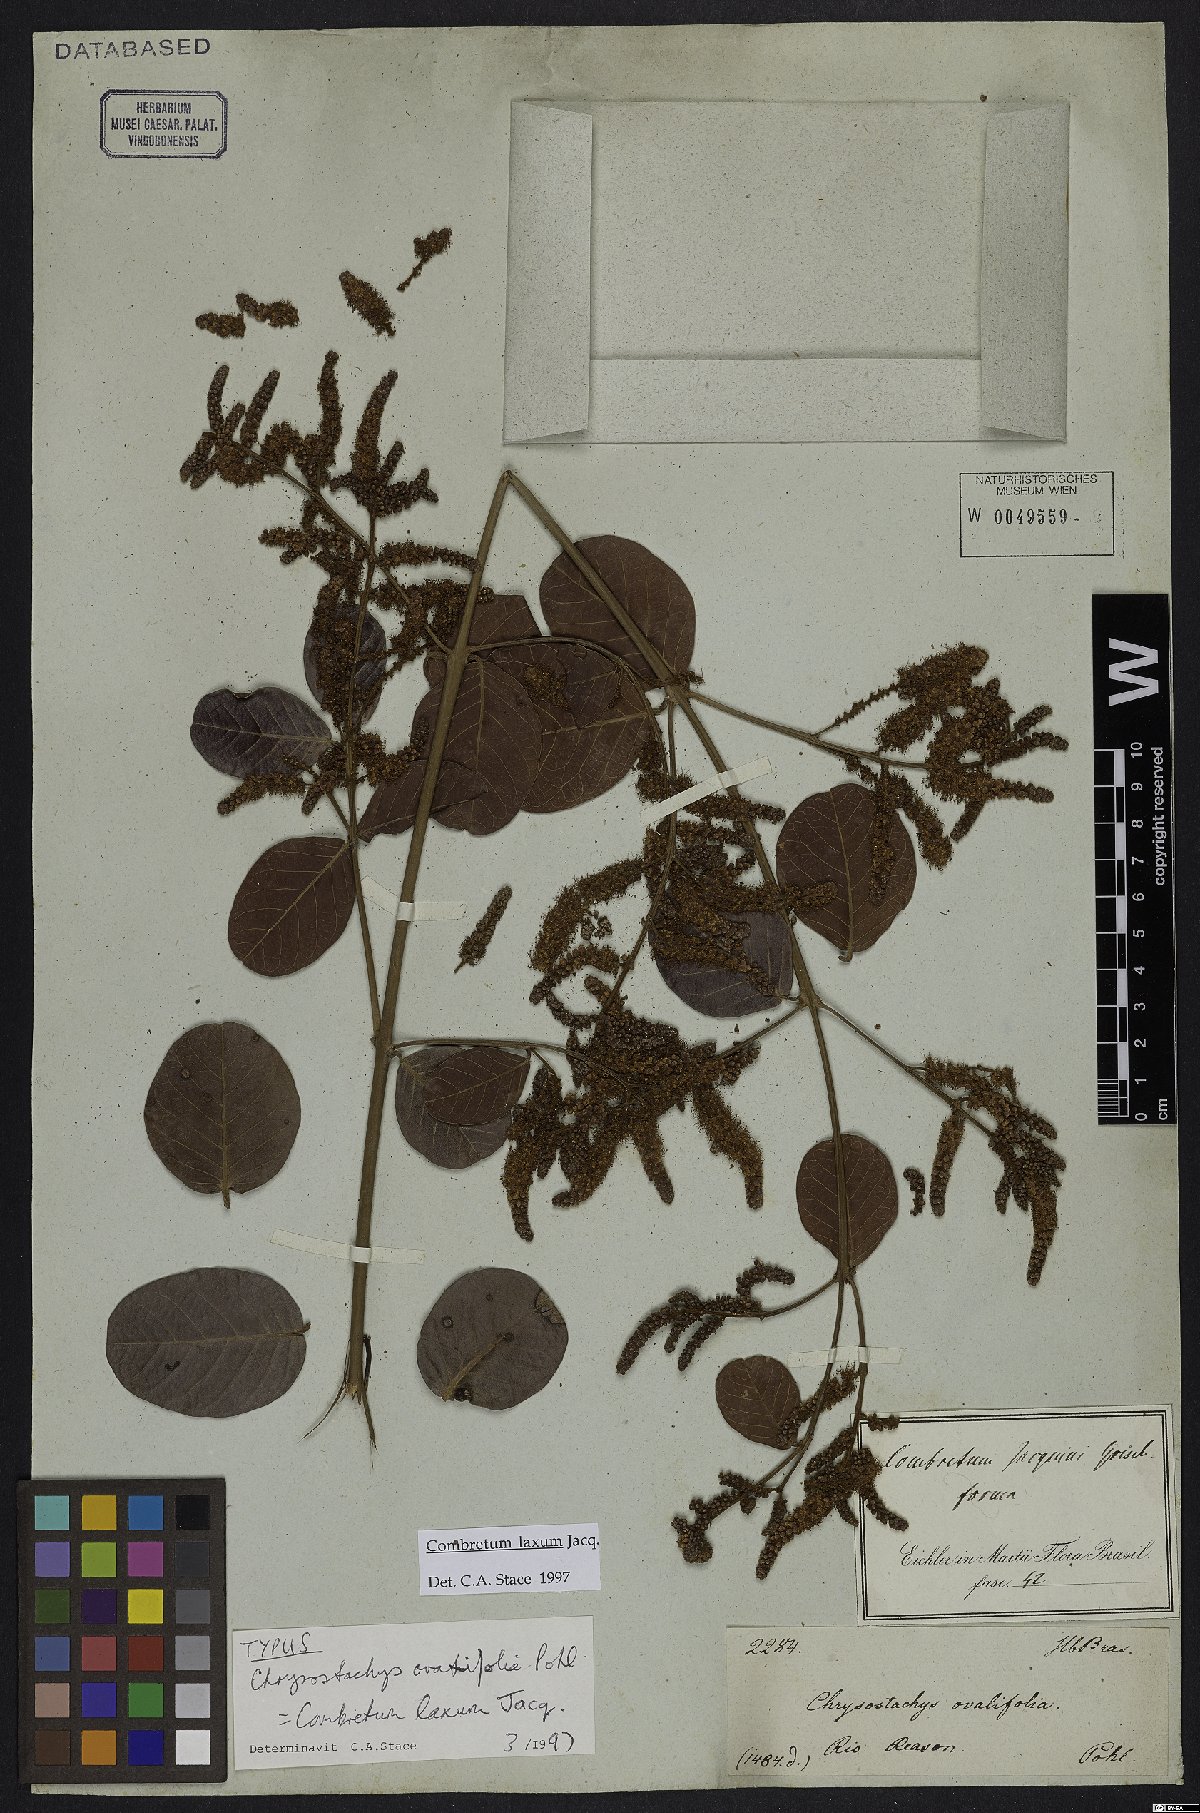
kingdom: Plantae
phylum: Tracheophyta
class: Magnoliopsida
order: Myrtales
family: Combretaceae
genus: Combretum
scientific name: Combretum laxum
